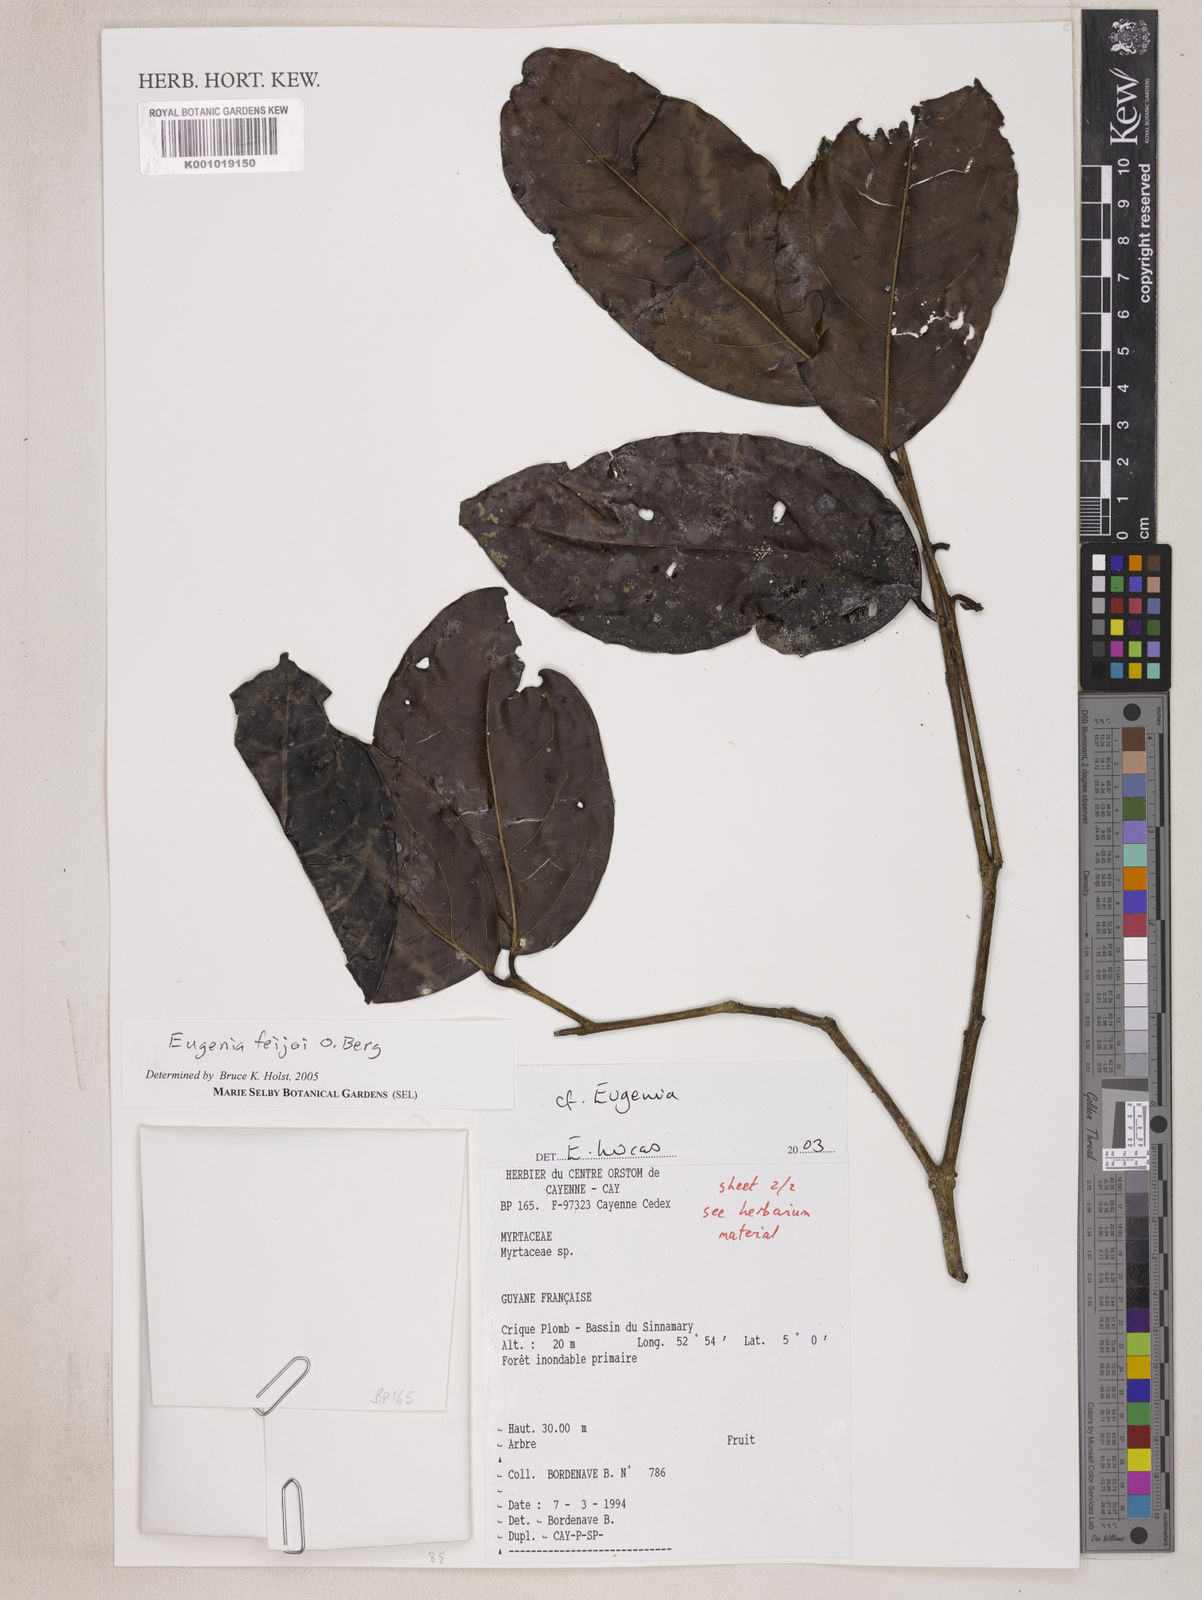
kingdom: Plantae
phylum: Tracheophyta
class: Magnoliopsida
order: Myrtales
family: Myrtaceae
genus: Eugenia
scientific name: Eugenia moschata
